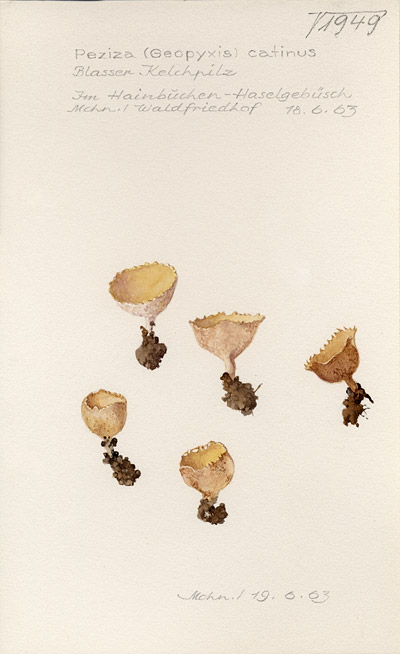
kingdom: Fungi
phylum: Ascomycota
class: Pezizomycetes
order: Pezizales
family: Tarzettaceae
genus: Tarzetta
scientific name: Tarzetta catinus
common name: Greater toothed cup
